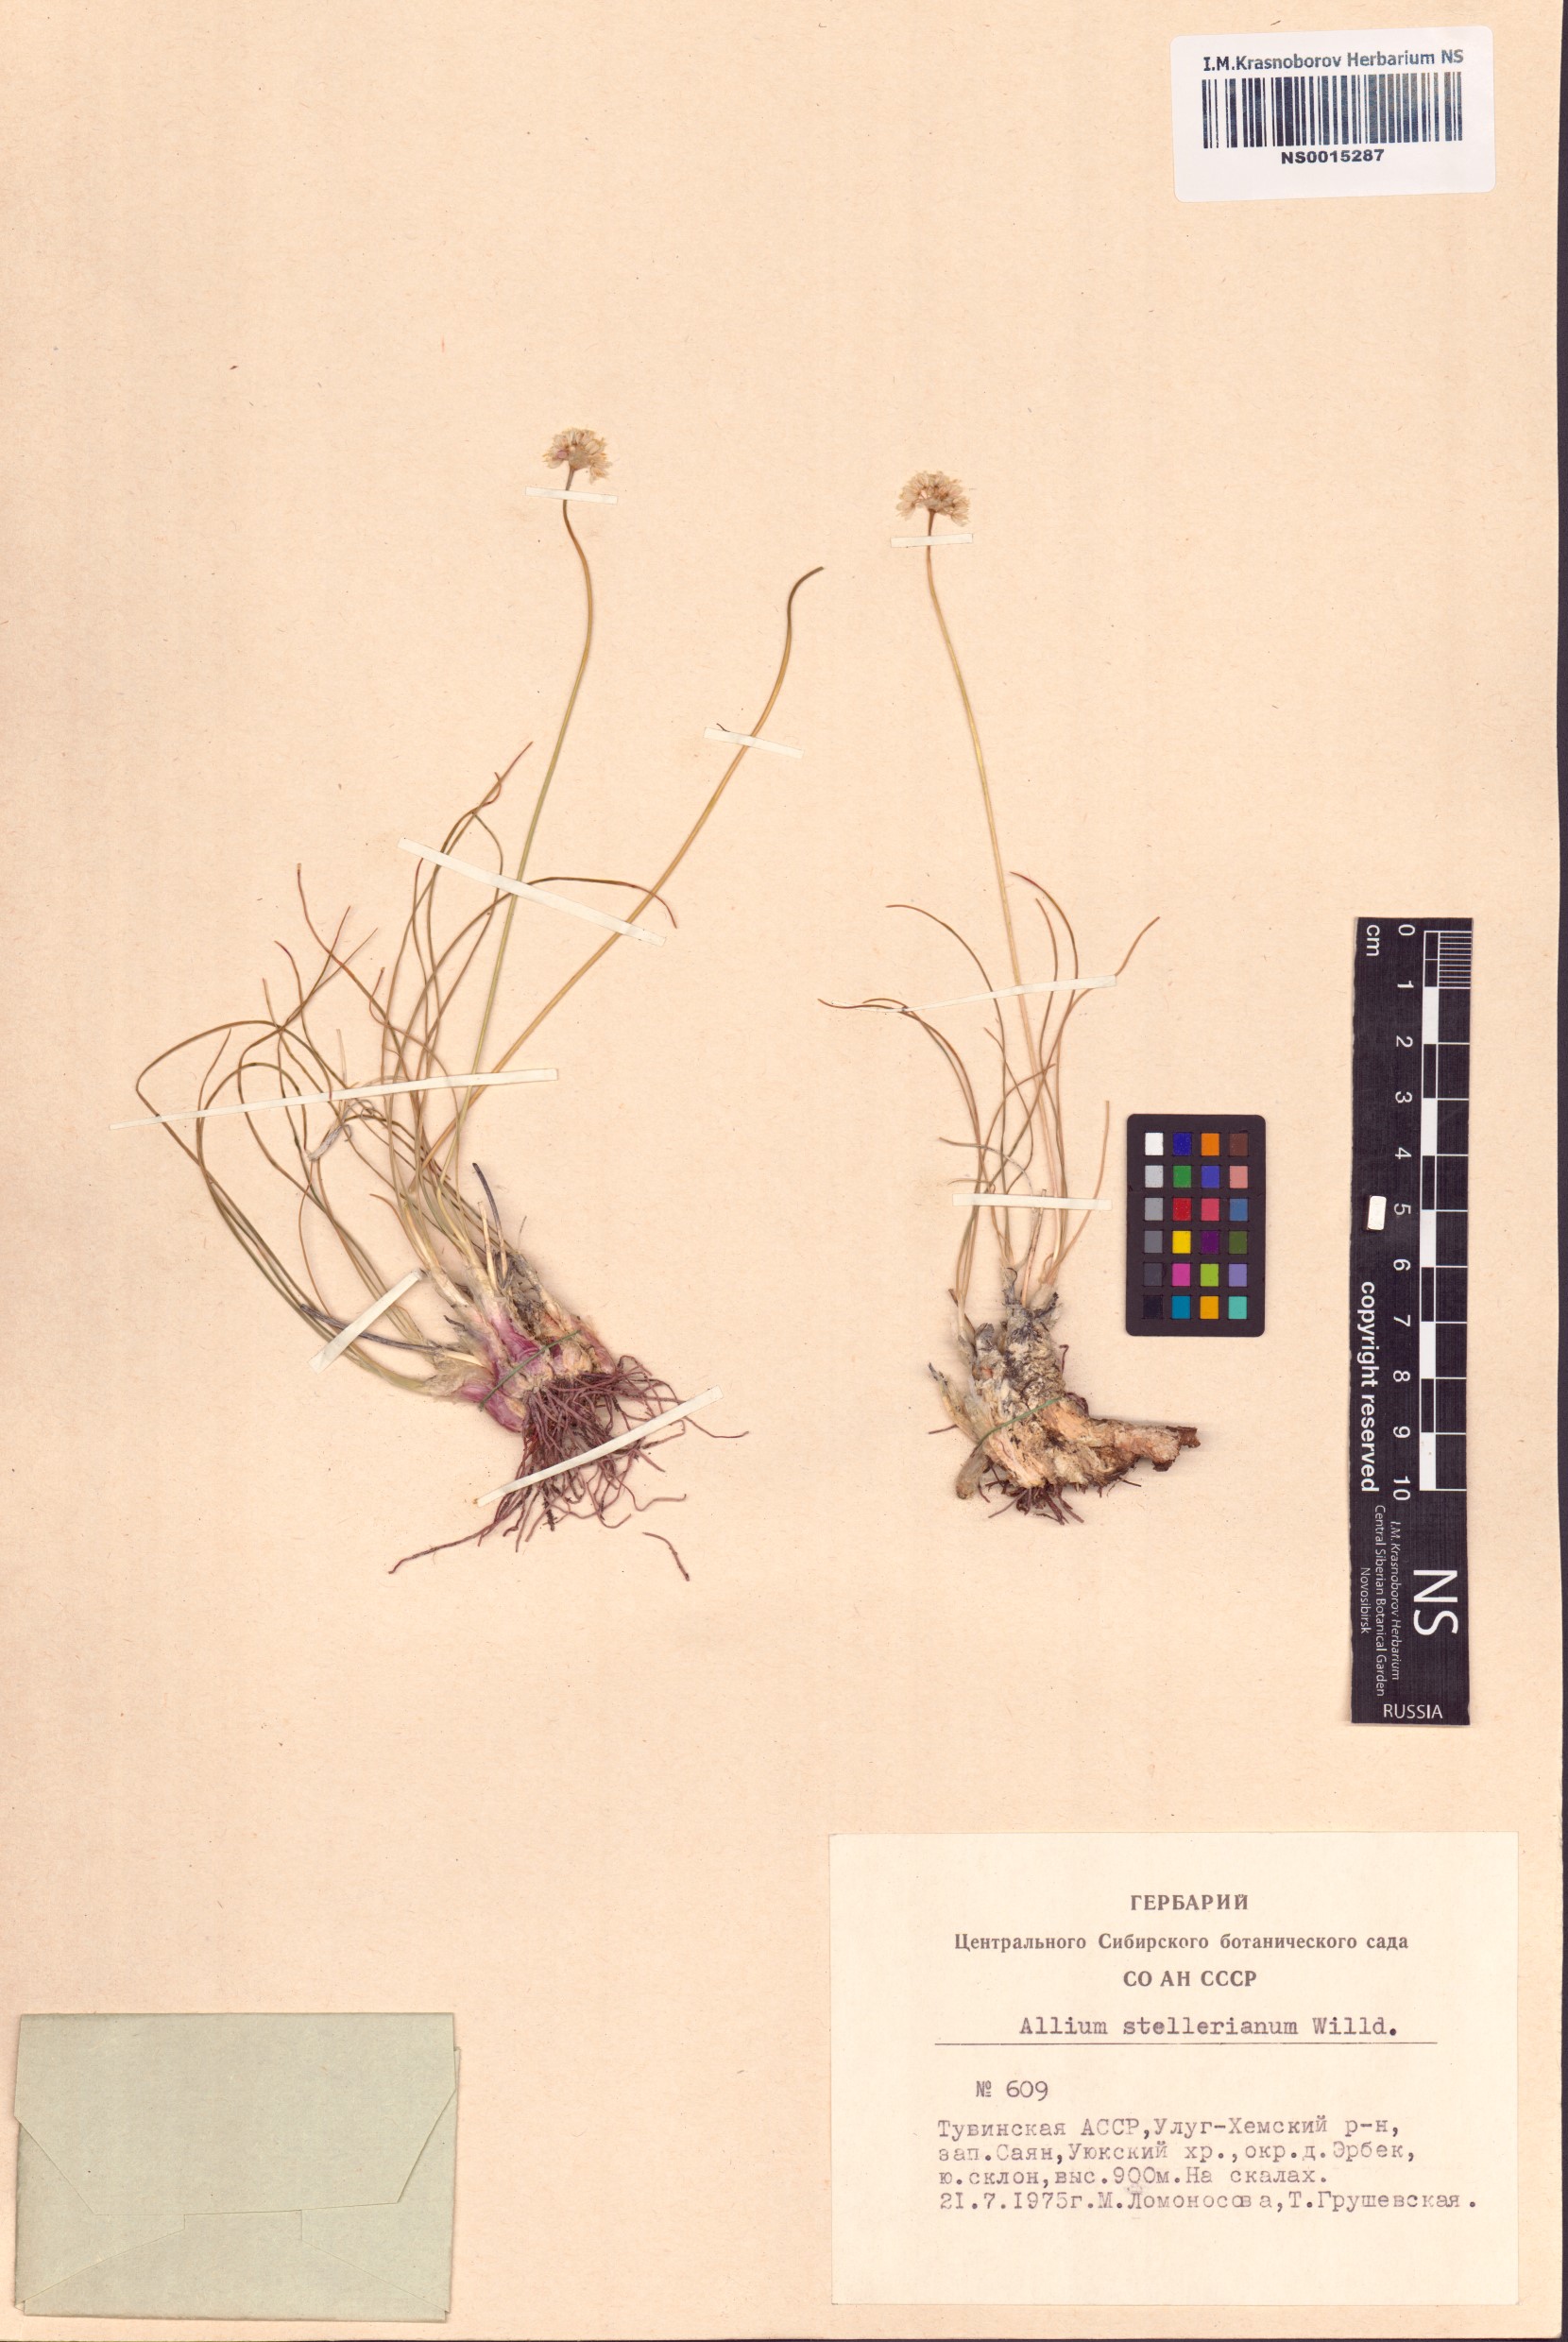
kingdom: Plantae
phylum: Tracheophyta
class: Liliopsida
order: Asparagales
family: Amaryllidaceae
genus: Allium
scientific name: Allium stellerianum
